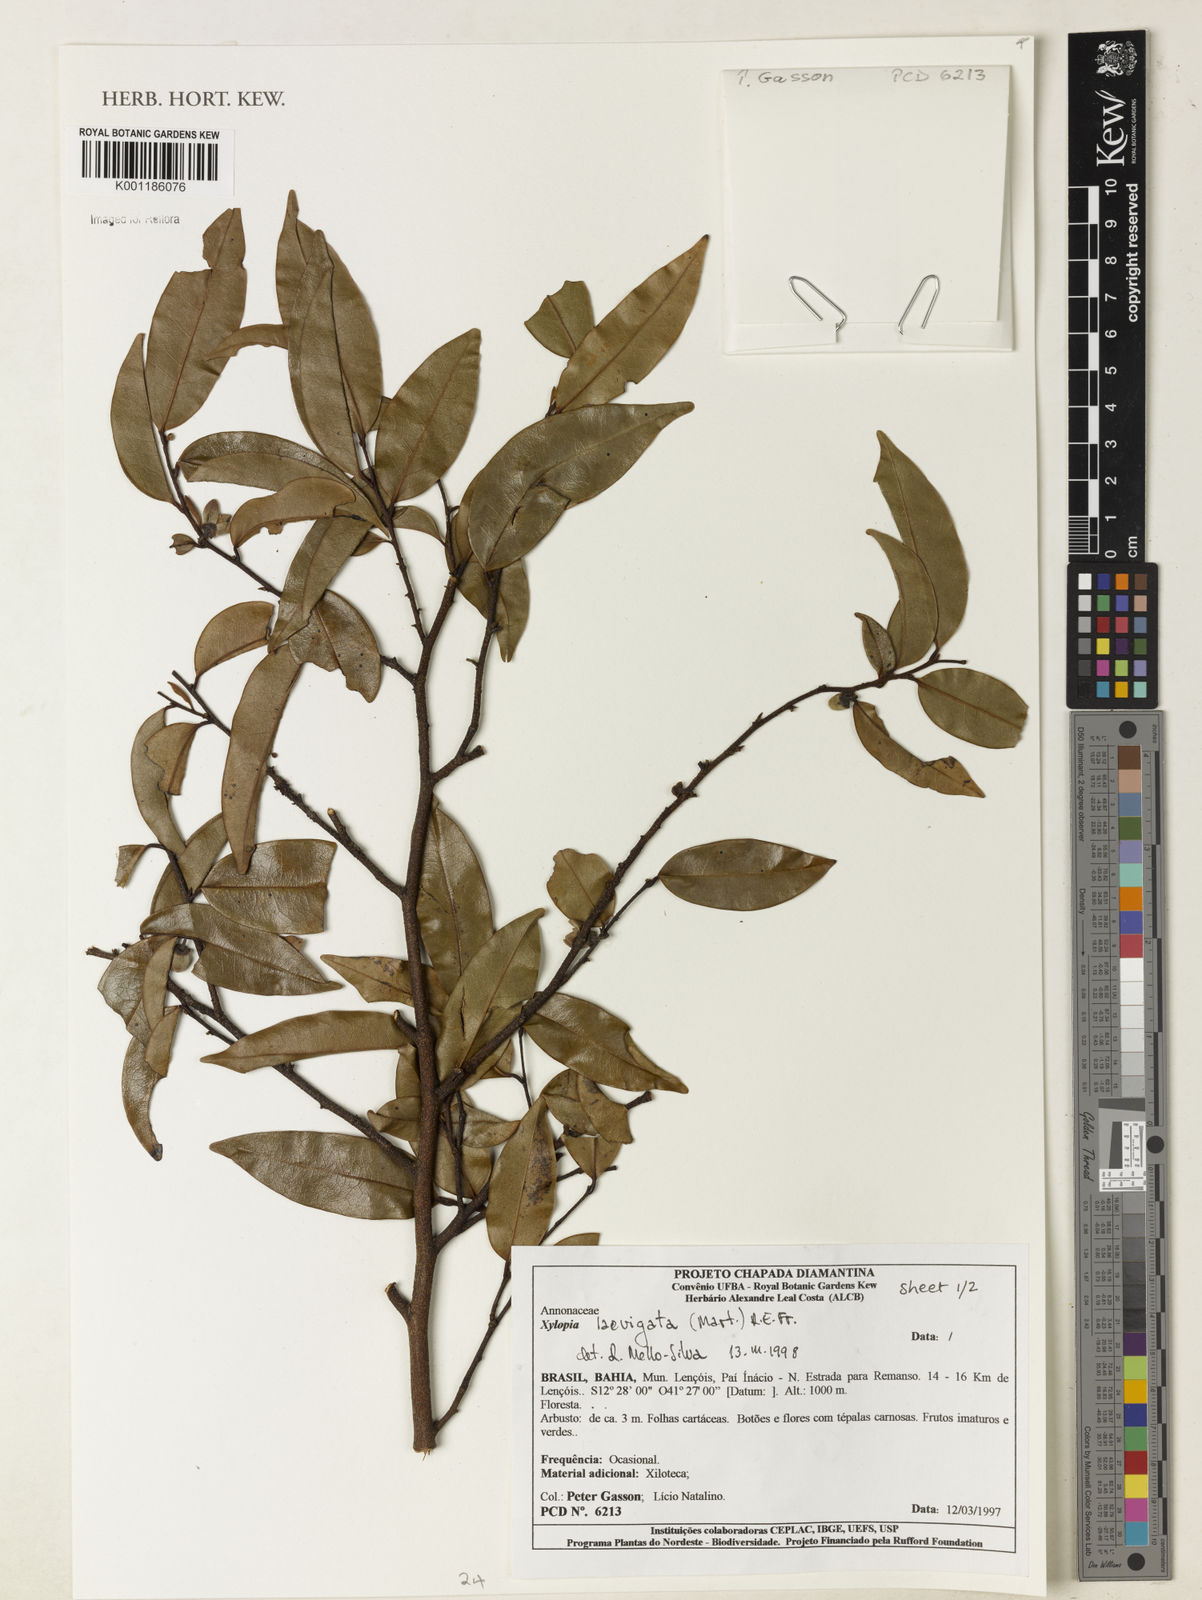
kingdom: Plantae
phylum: Tracheophyta
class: Magnoliopsida
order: Magnoliales
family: Annonaceae
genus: Xylopia
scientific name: Xylopia laevigata
